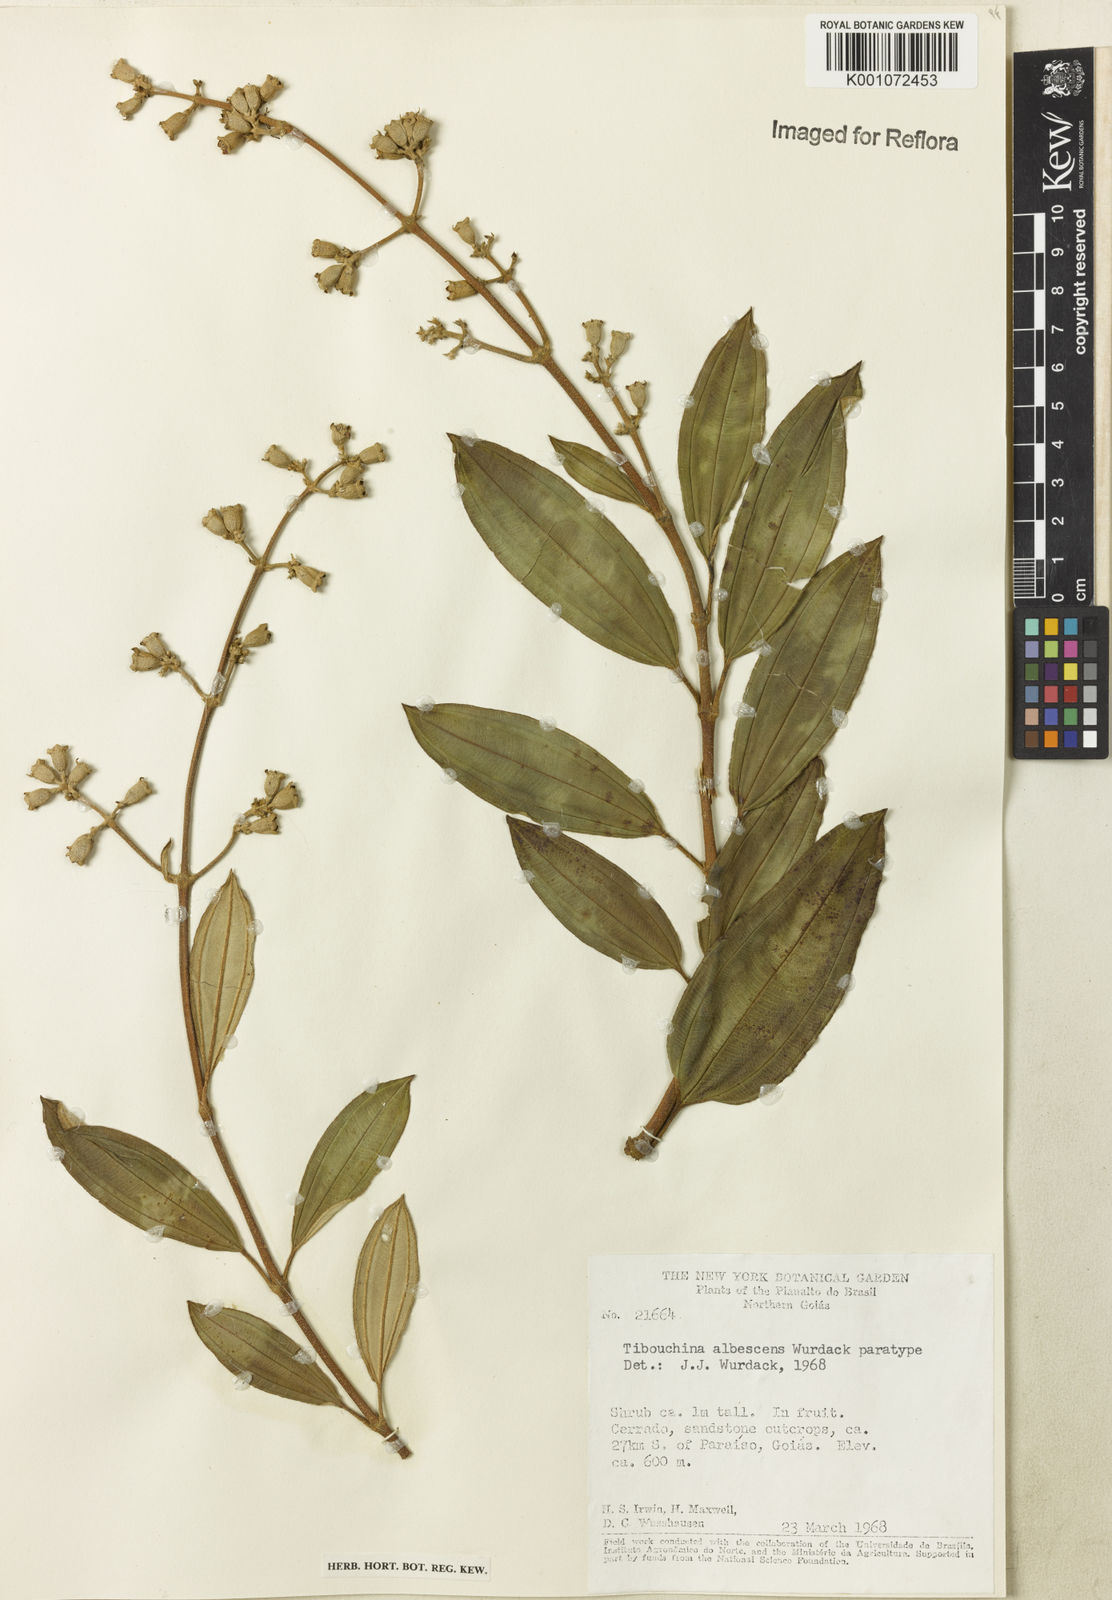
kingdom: Plantae
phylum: Tracheophyta
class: Magnoliopsida
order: Myrtales
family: Melastomataceae
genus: Tibouchina
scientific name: Tibouchina
